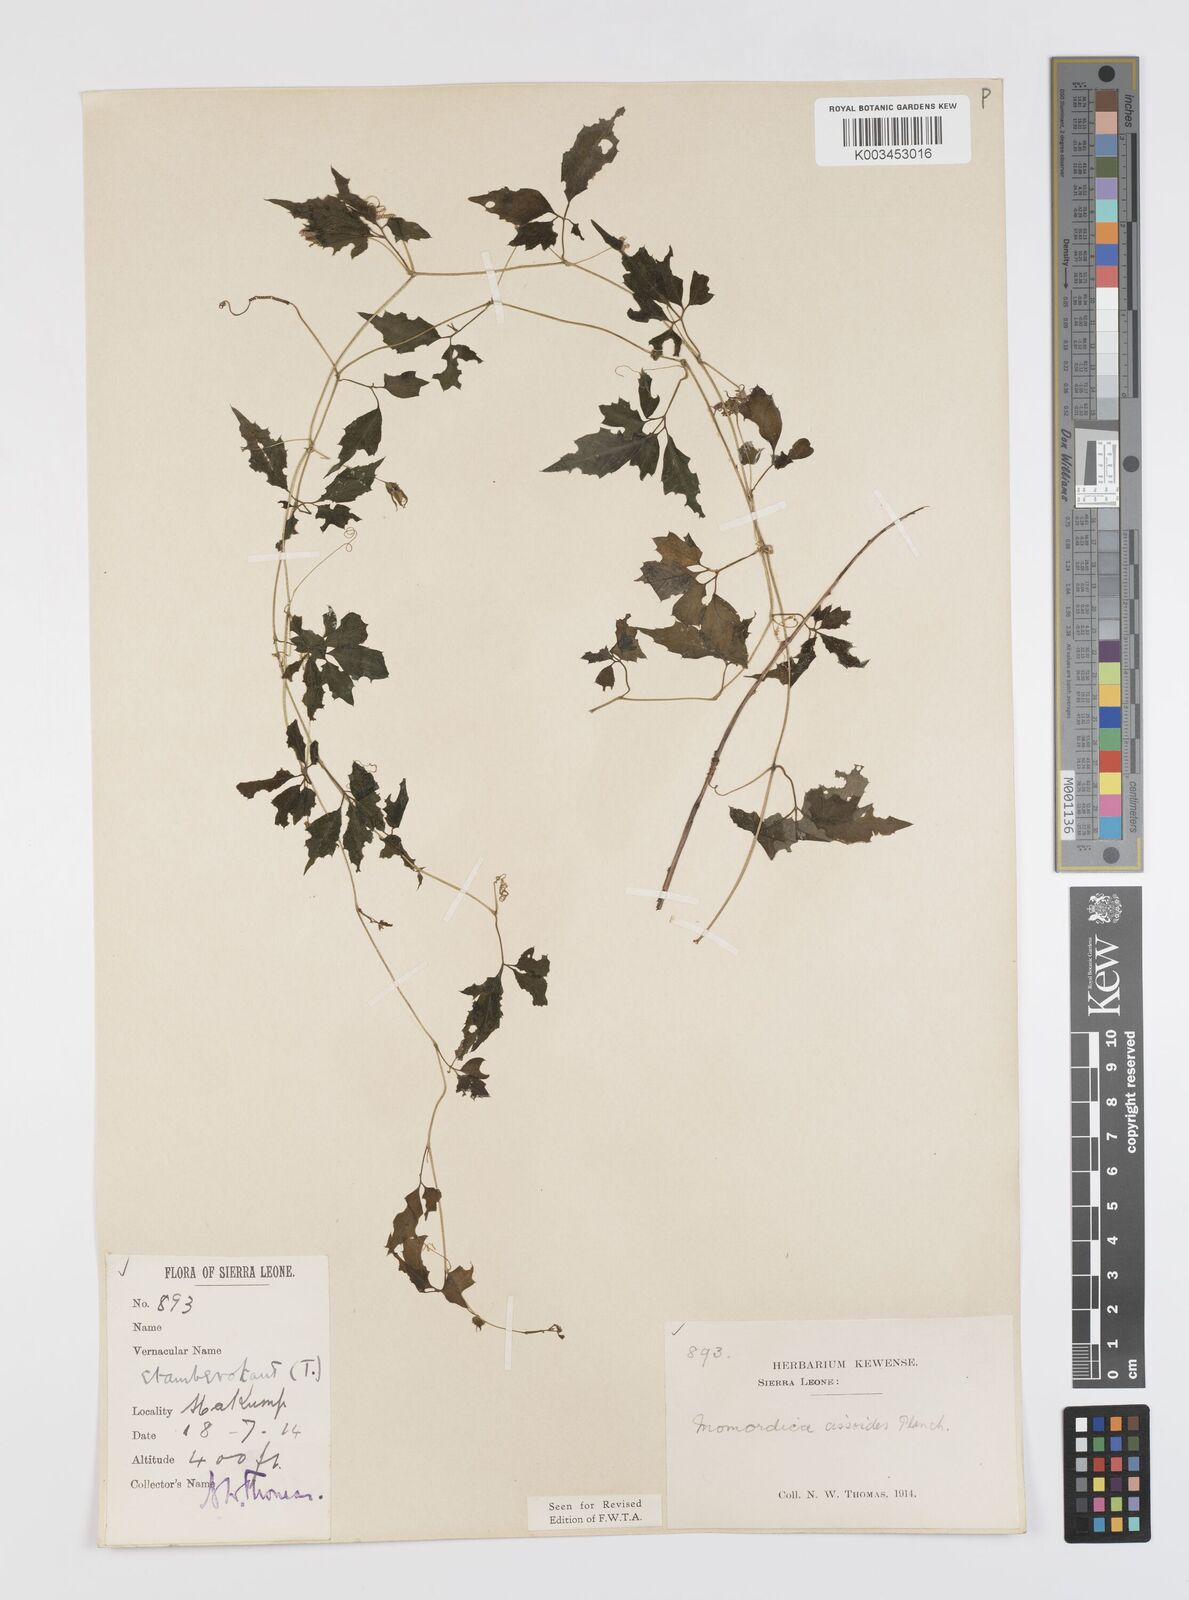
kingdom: Plantae
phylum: Tracheophyta
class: Magnoliopsida
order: Cucurbitales
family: Cucurbitaceae
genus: Momordica
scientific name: Momordica cissoides
